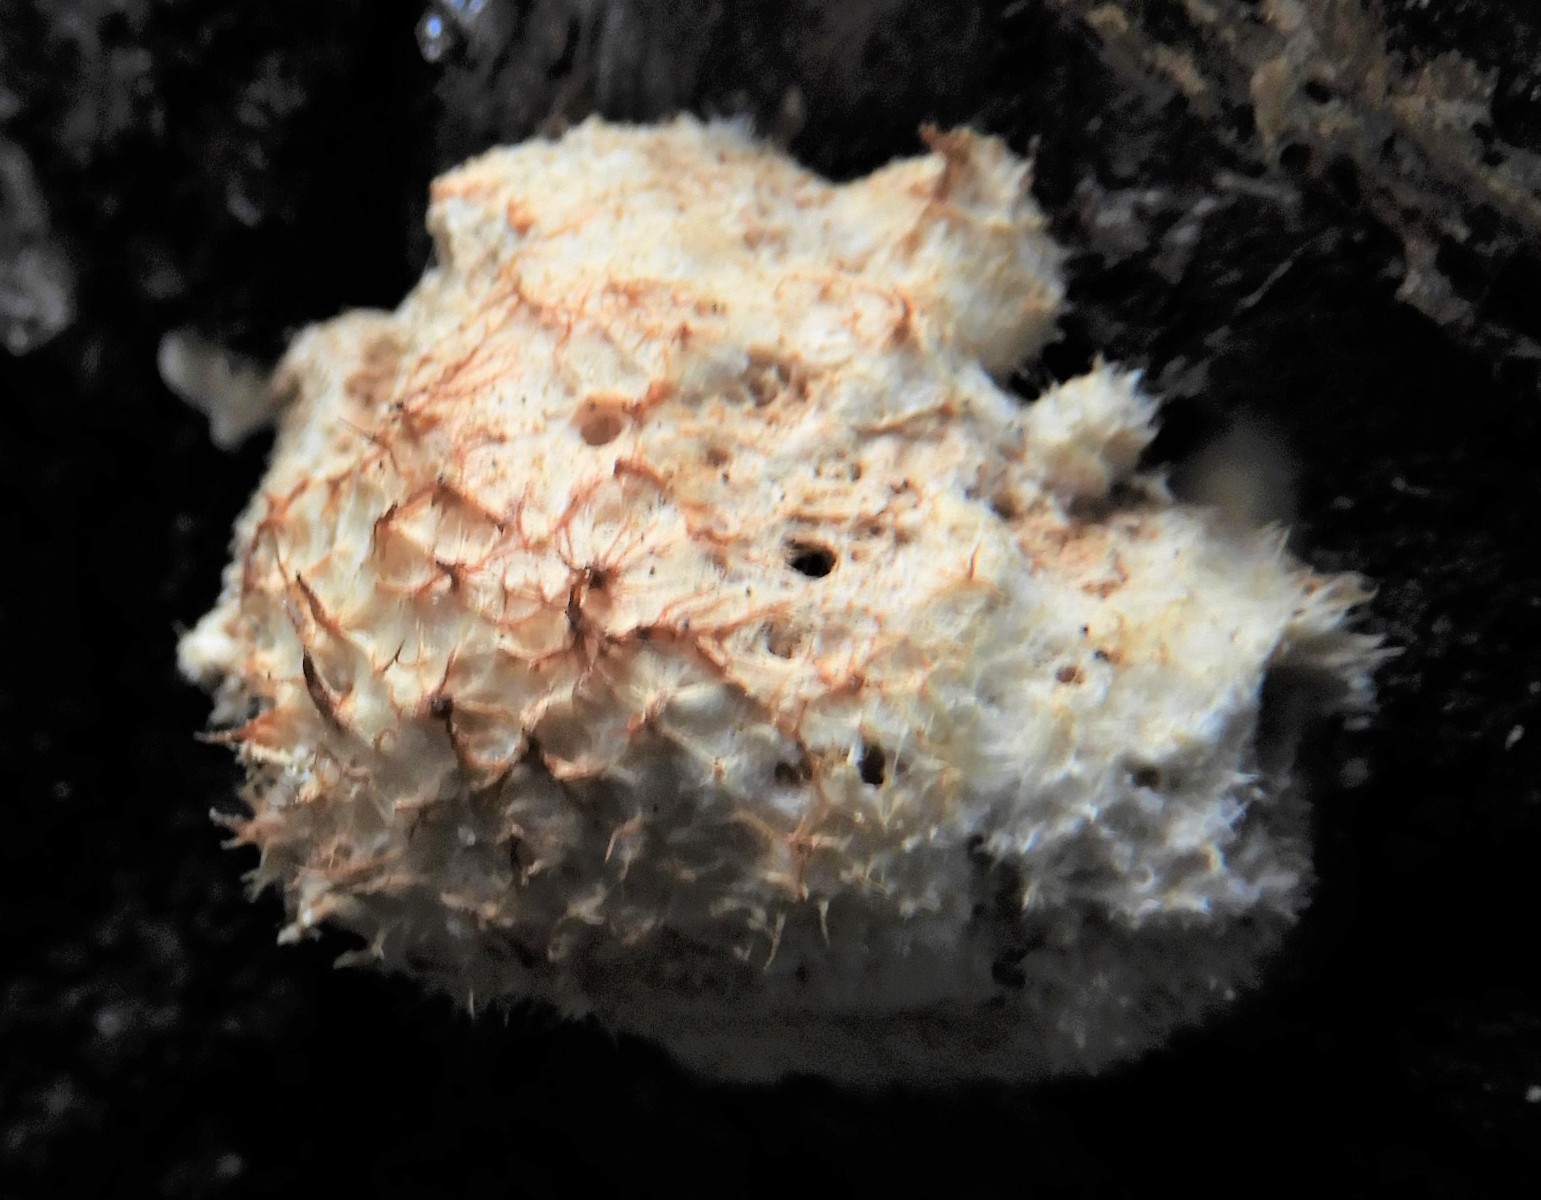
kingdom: Fungi
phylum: Basidiomycota
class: Agaricomycetes
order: Polyporales
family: Dacryobolaceae
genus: Postia
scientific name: Postia ptychogaster
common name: støvende kødporesvamp
